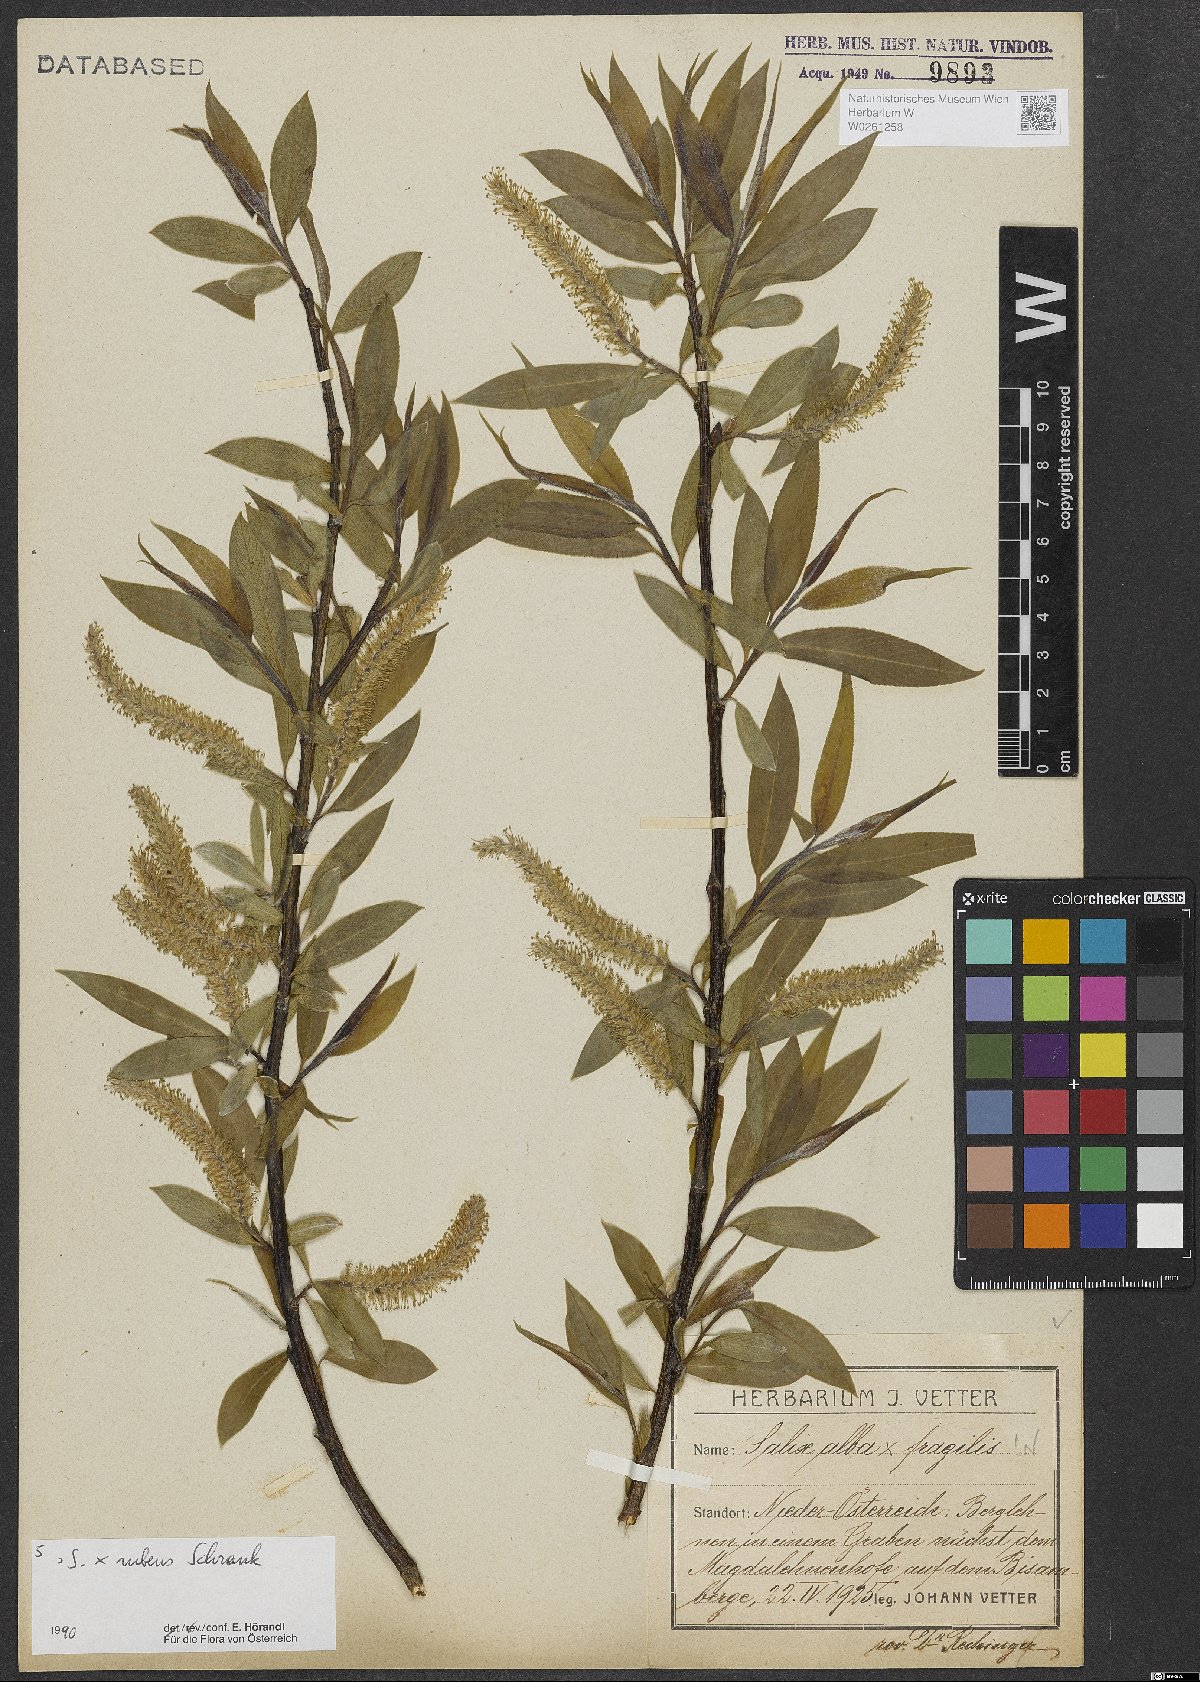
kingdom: Plantae
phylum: Tracheophyta
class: Magnoliopsida
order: Malpighiales
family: Salicaceae
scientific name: Salicaceae
